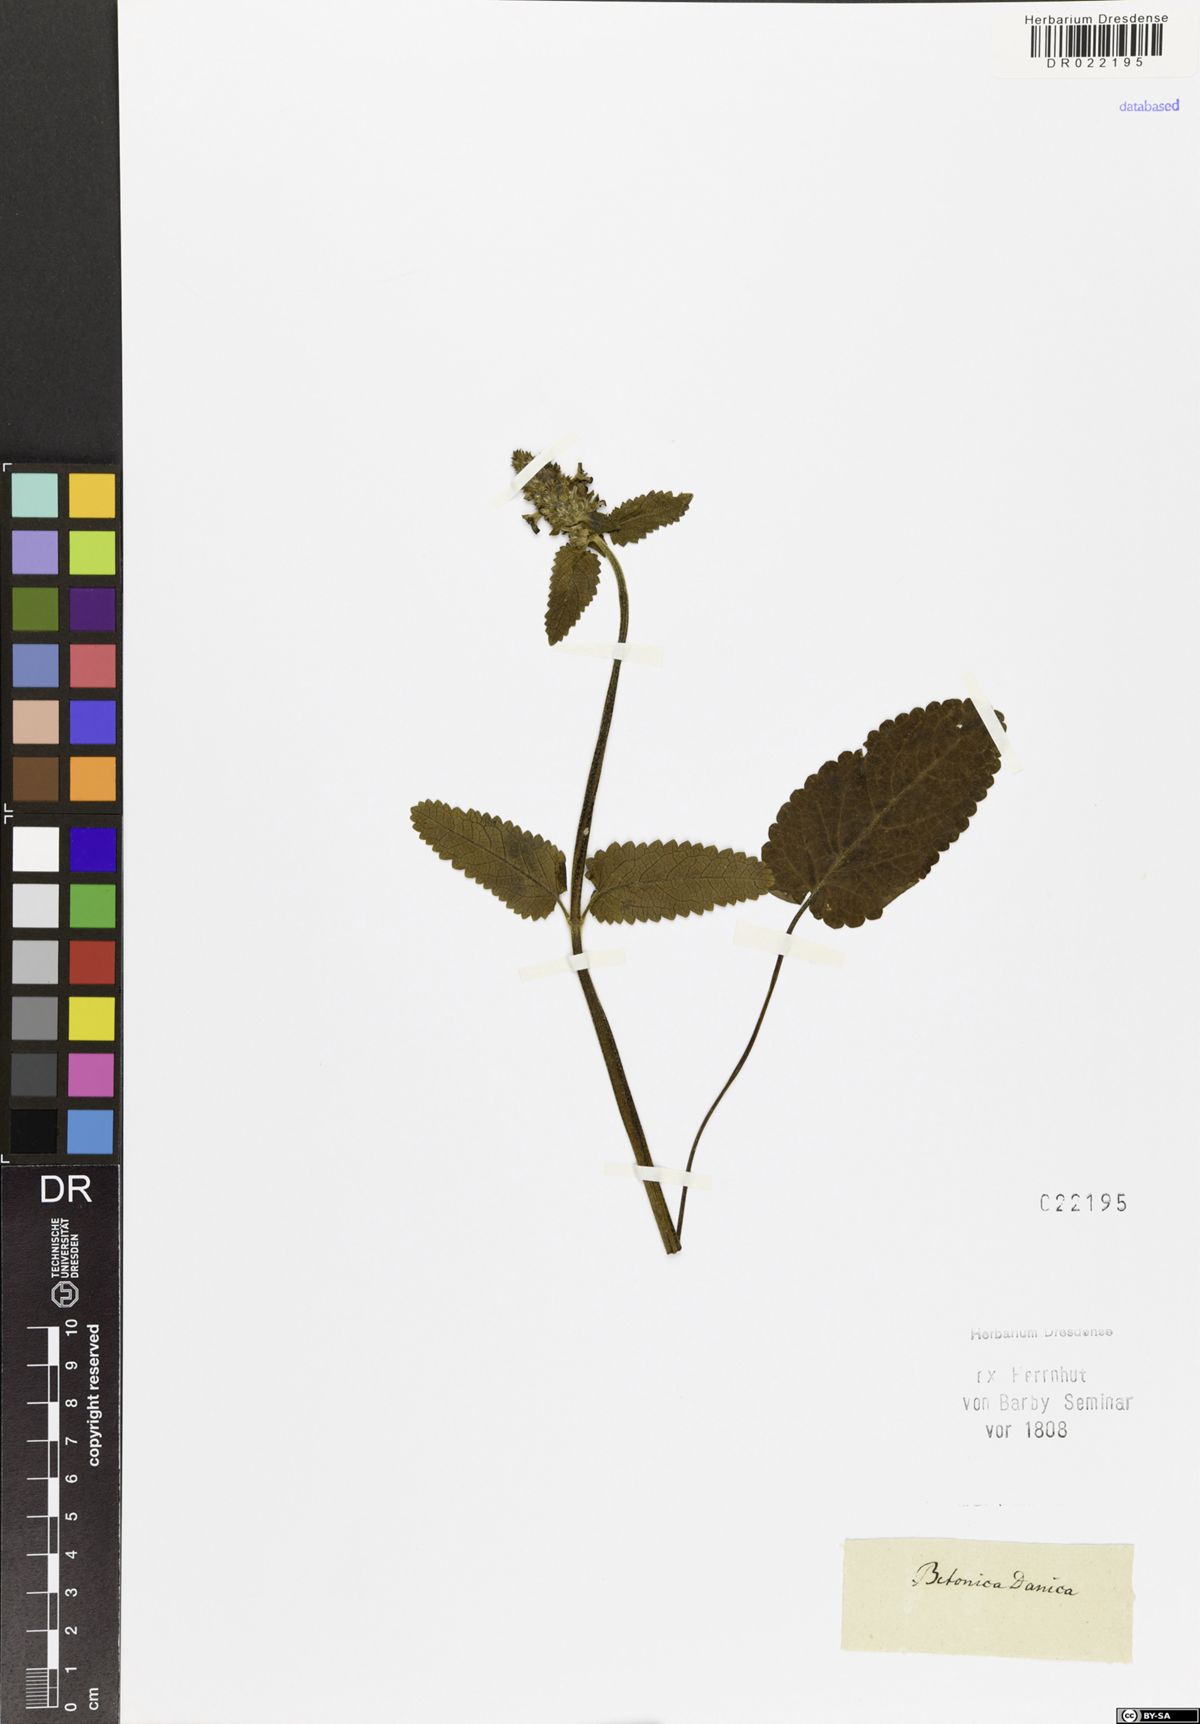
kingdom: Plantae
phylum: Tracheophyta
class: Magnoliopsida
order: Lamiales
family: Lamiaceae
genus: Betonica
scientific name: Betonica officinalis
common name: Bishop's-wort
